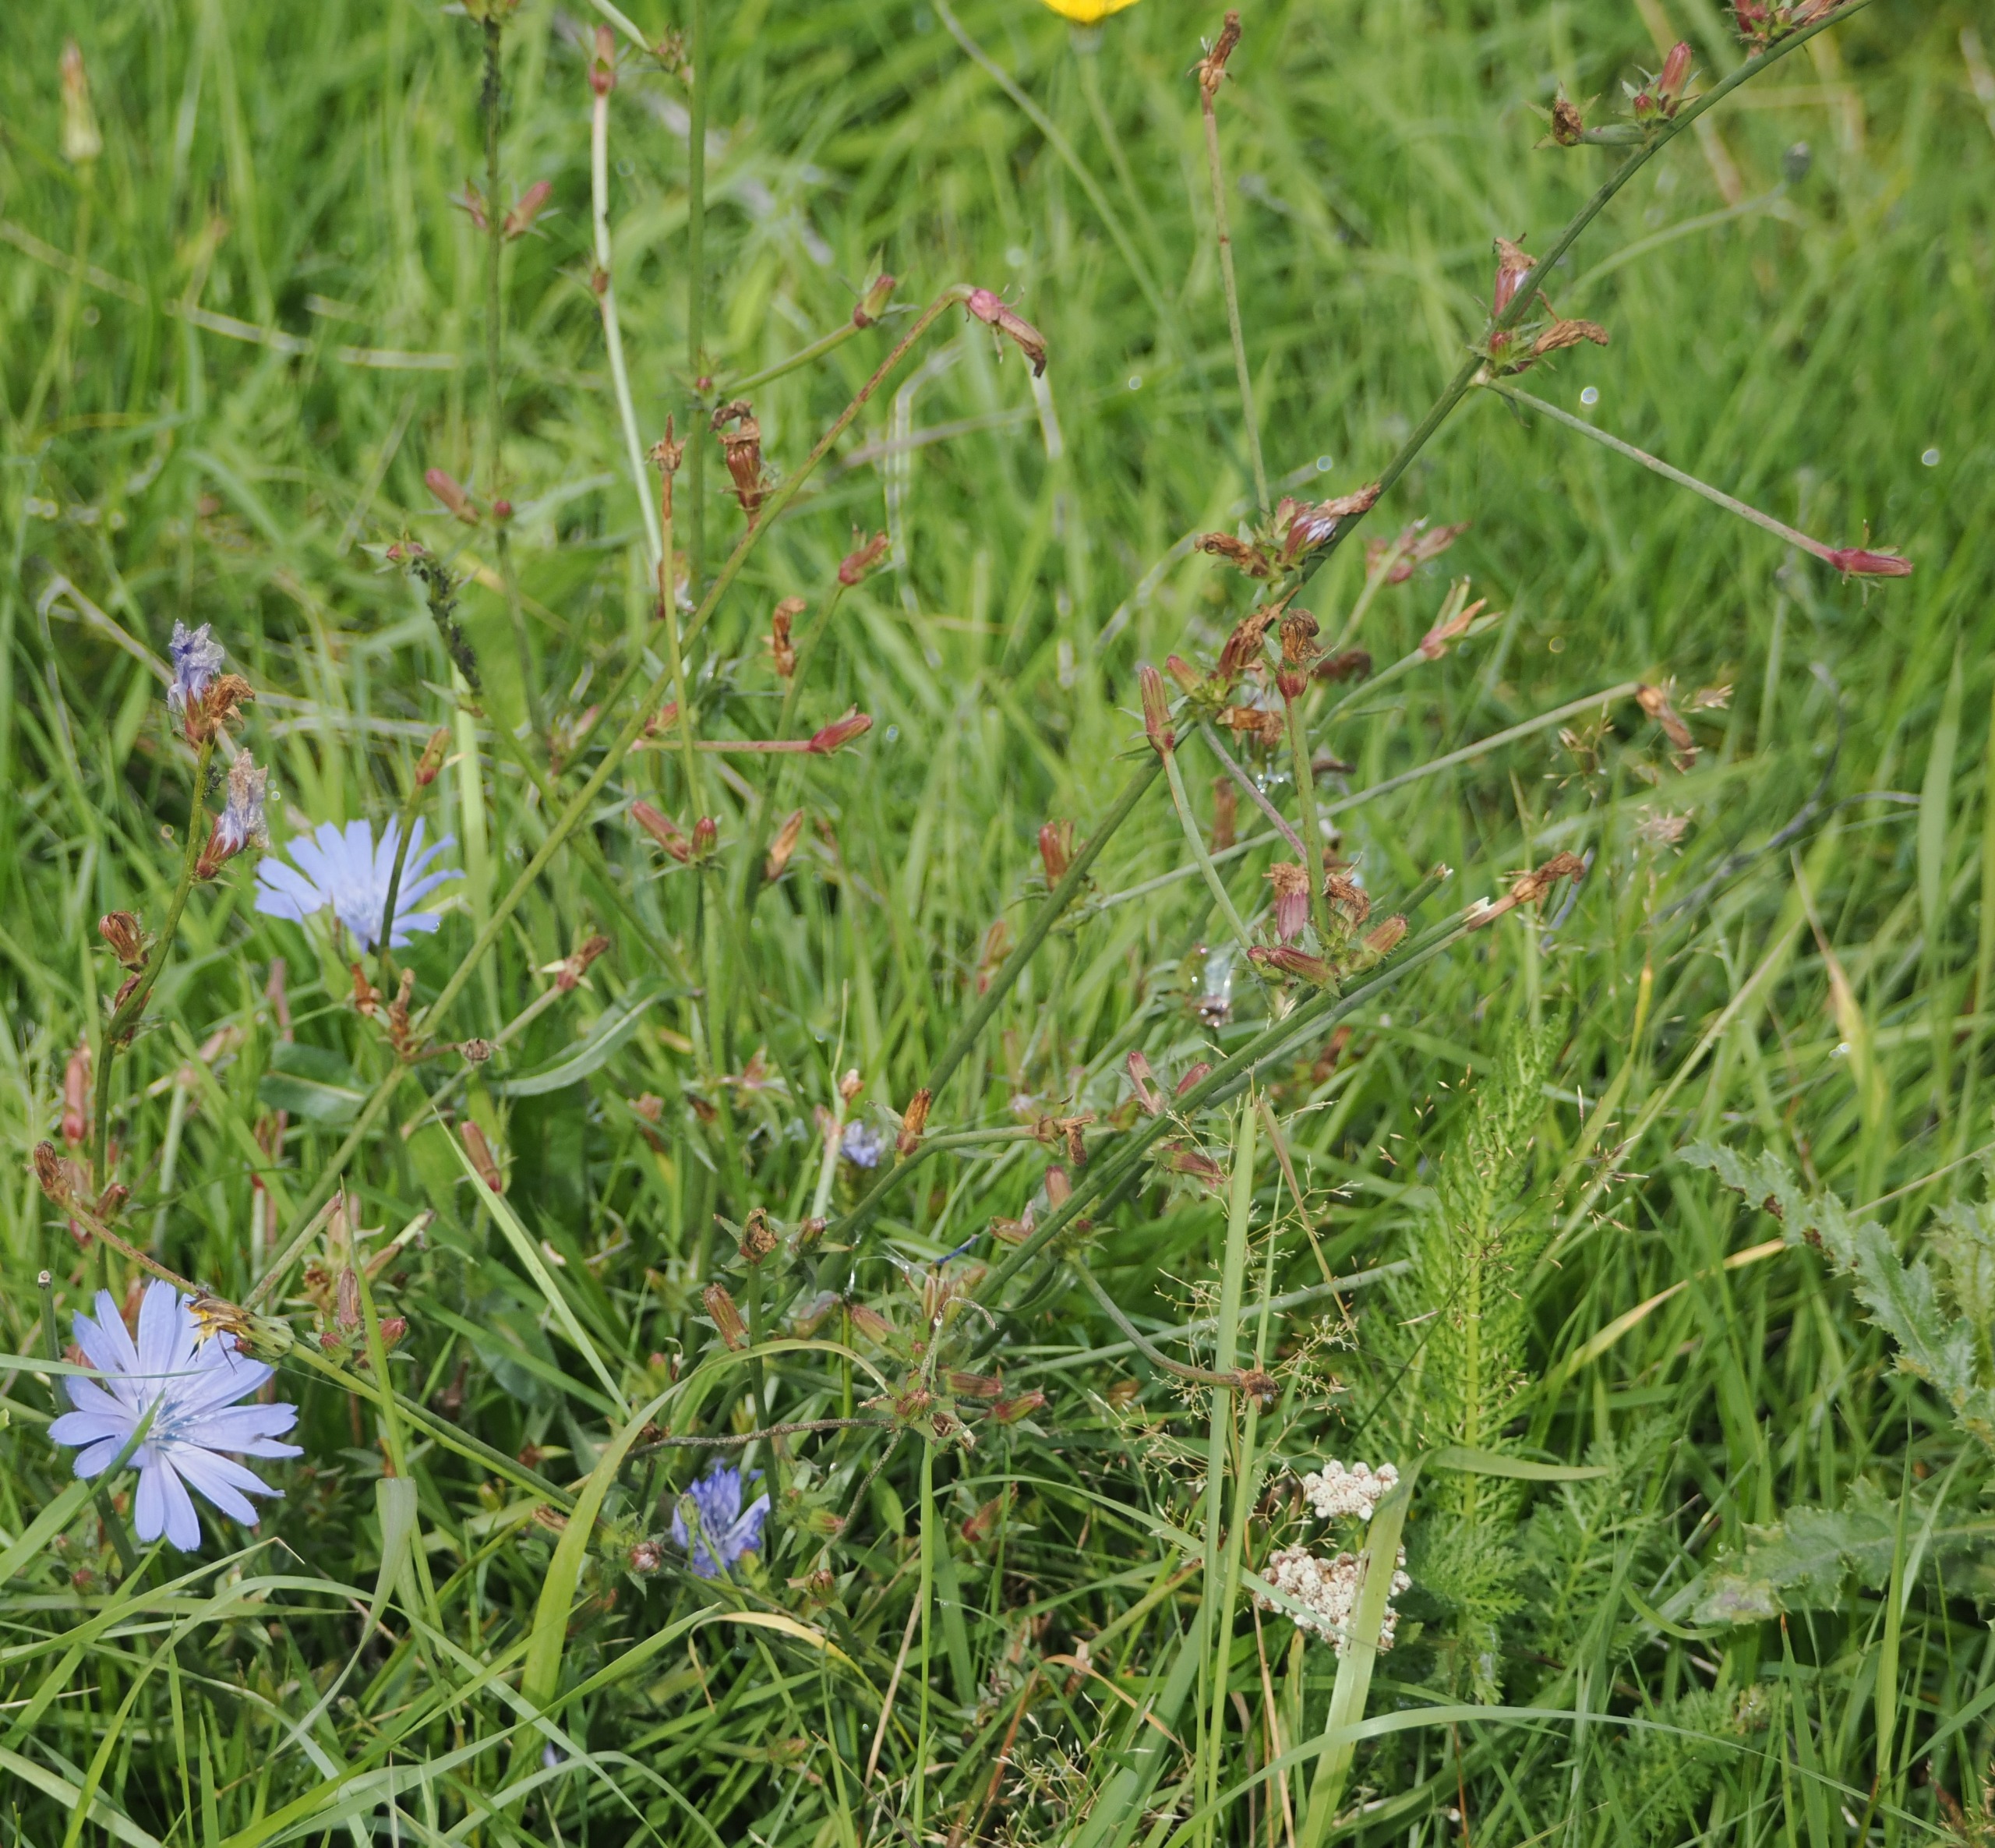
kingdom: Plantae
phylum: Tracheophyta
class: Magnoliopsida
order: Asterales
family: Asteraceae
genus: Cichorium
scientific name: Cichorium intybus
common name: Cikorie
